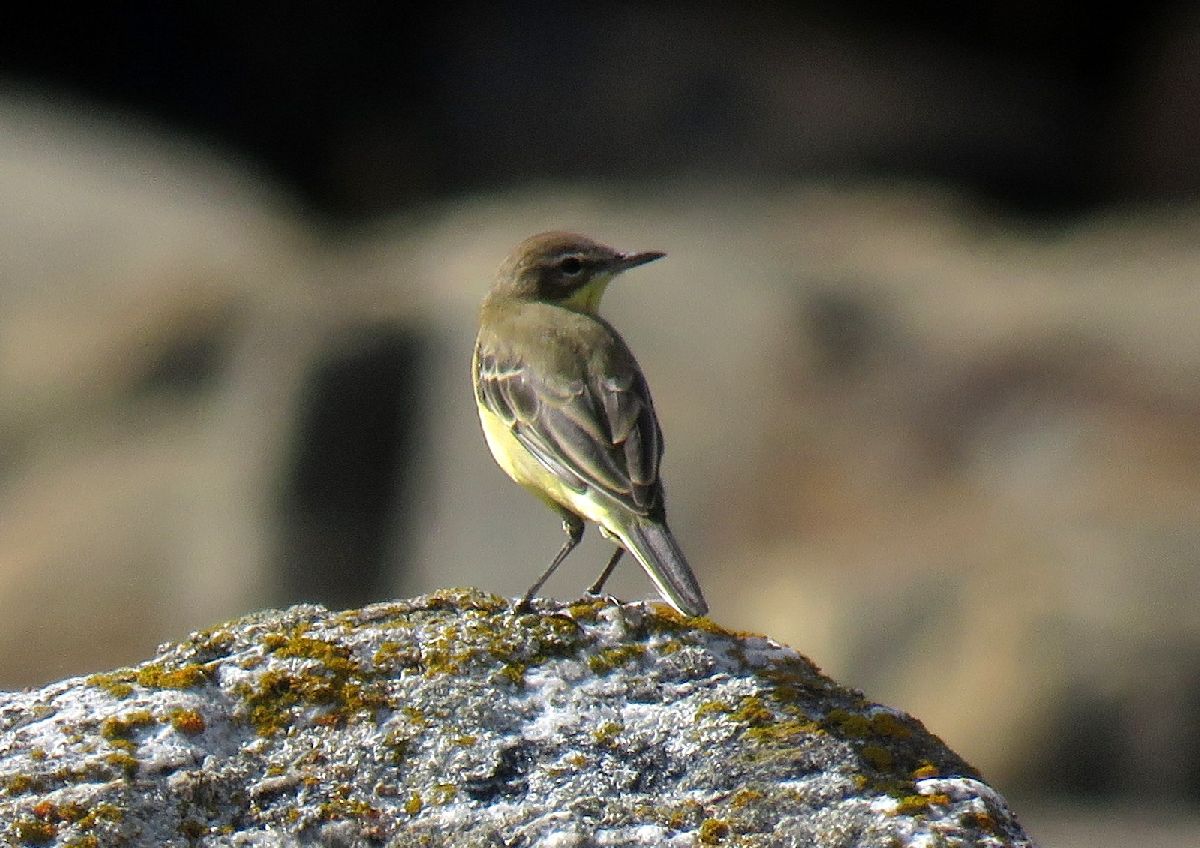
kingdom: Animalia
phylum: Chordata
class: Aves
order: Passeriformes
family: Motacillidae
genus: Motacilla
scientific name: Motacilla flava
